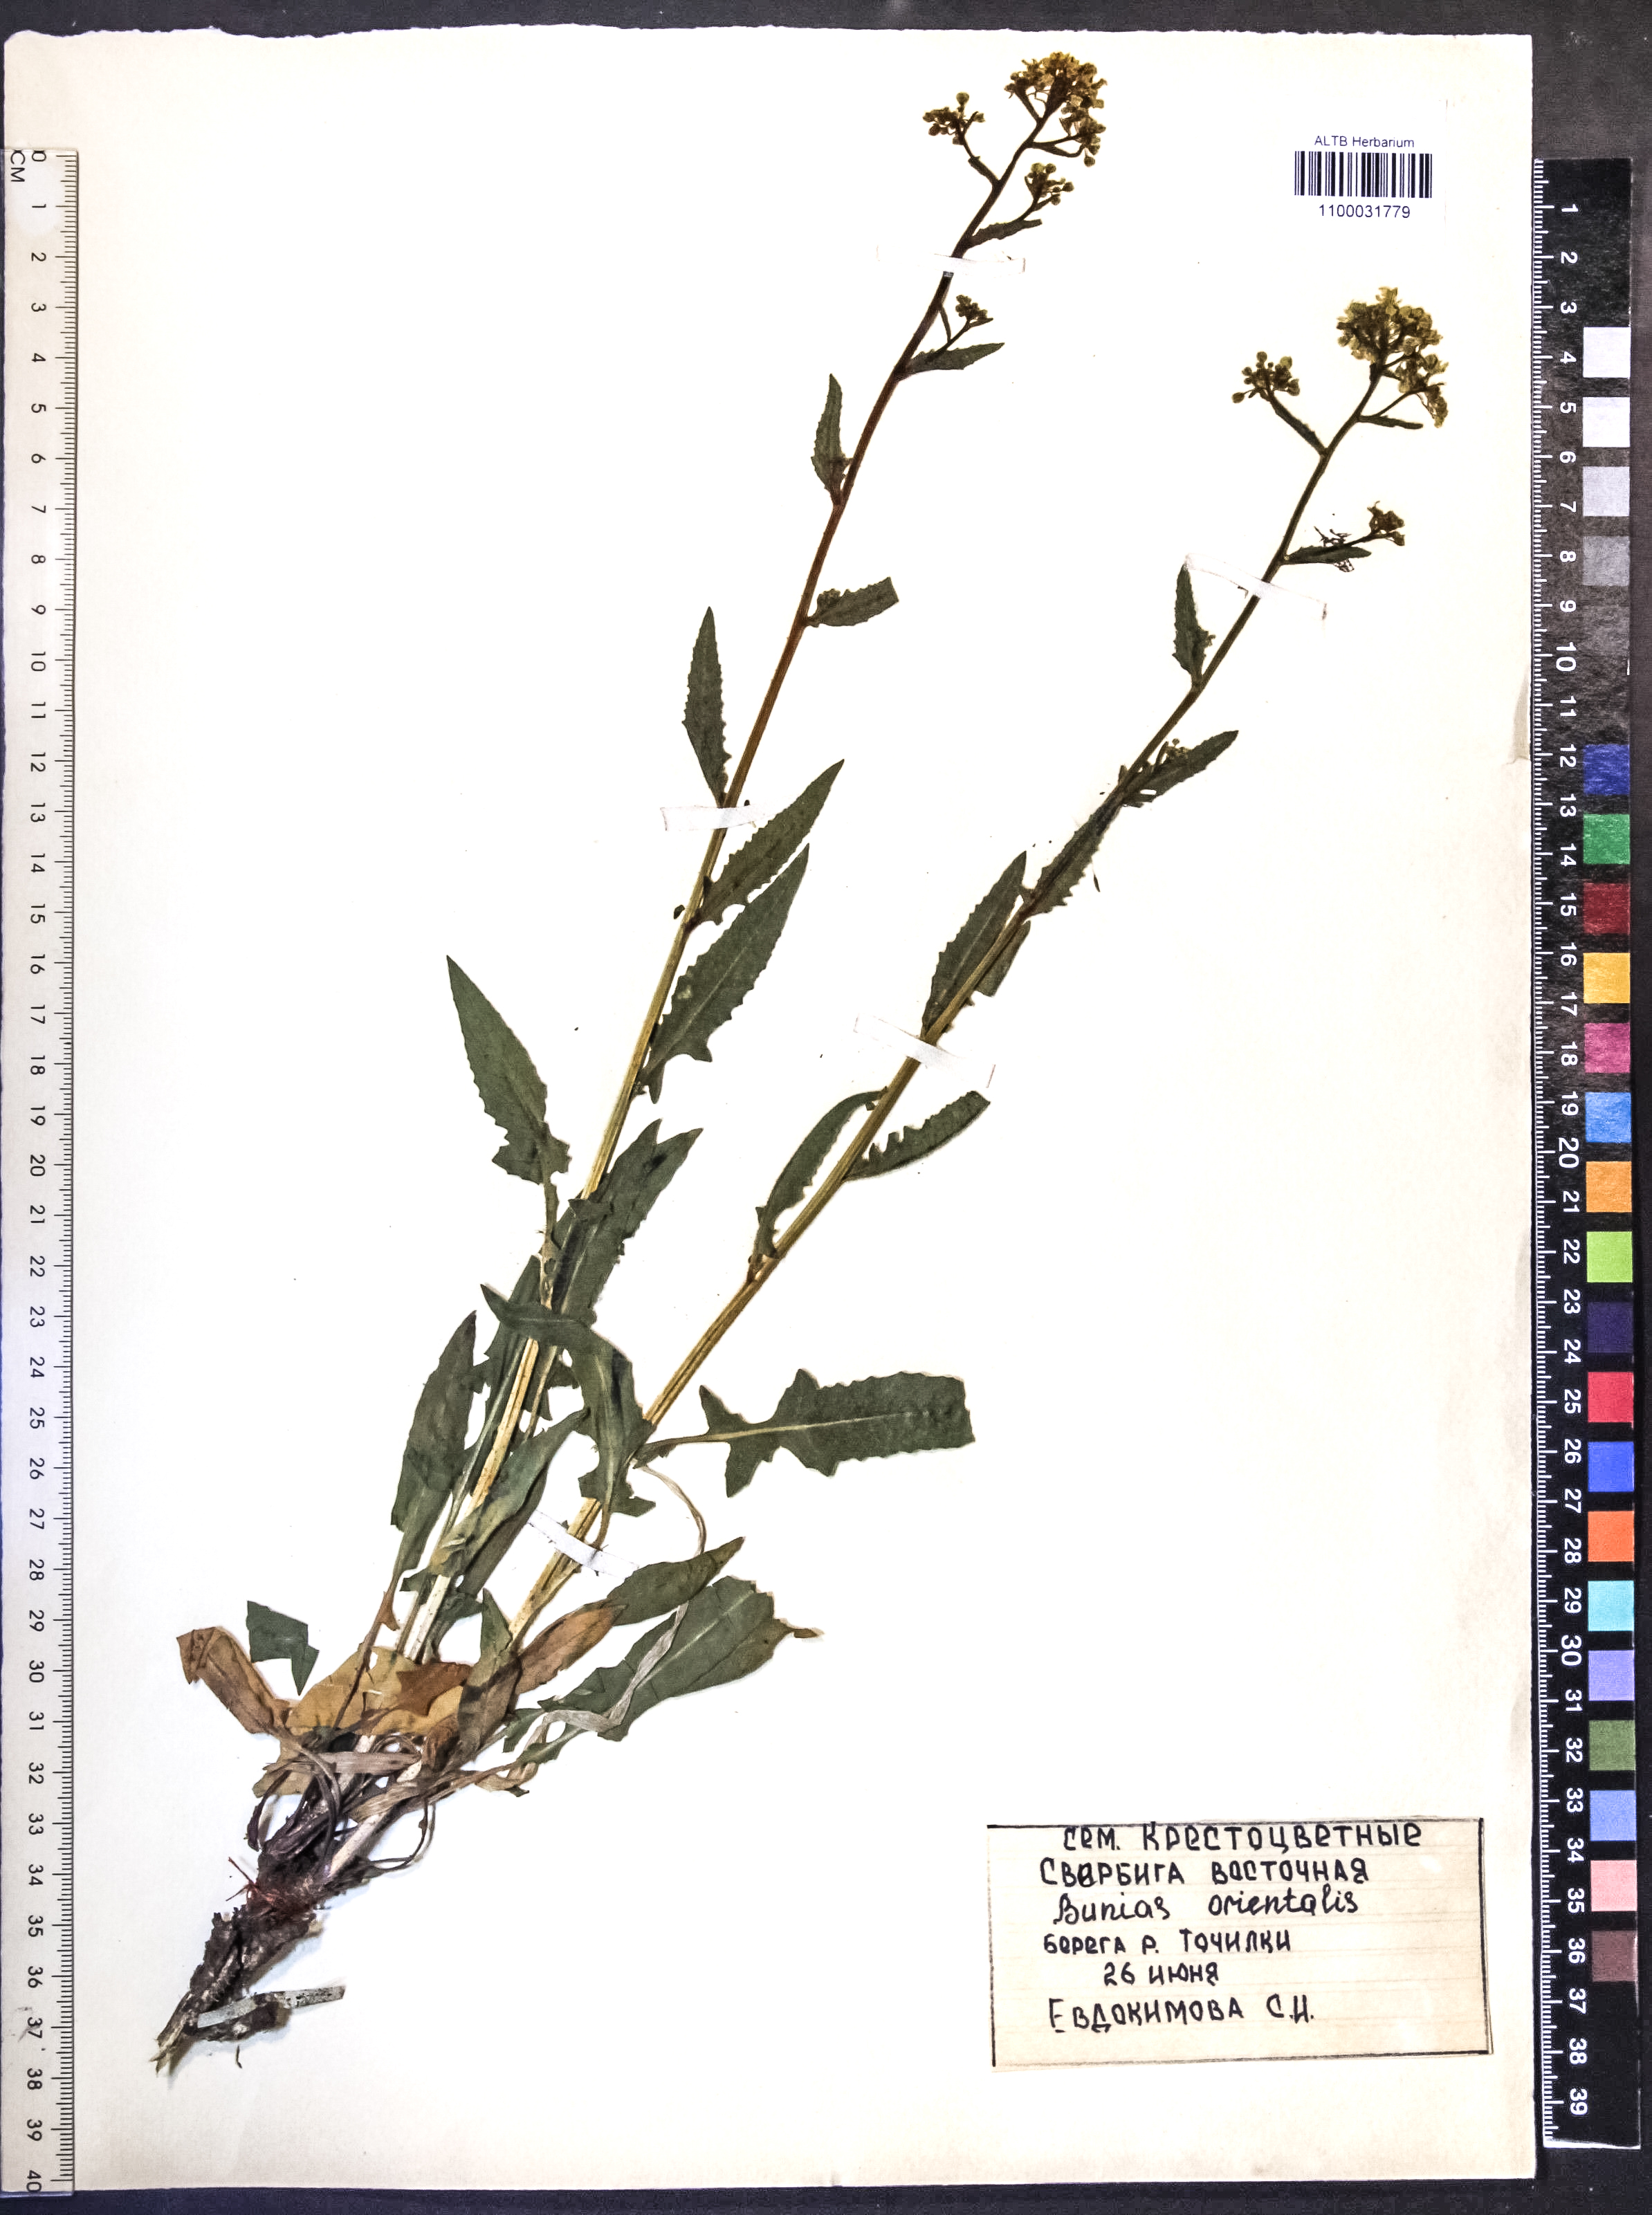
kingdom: Plantae
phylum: Tracheophyta
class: Magnoliopsida
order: Brassicales
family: Brassicaceae
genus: Bunias
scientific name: Bunias orientalis
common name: Warty-cabbage
